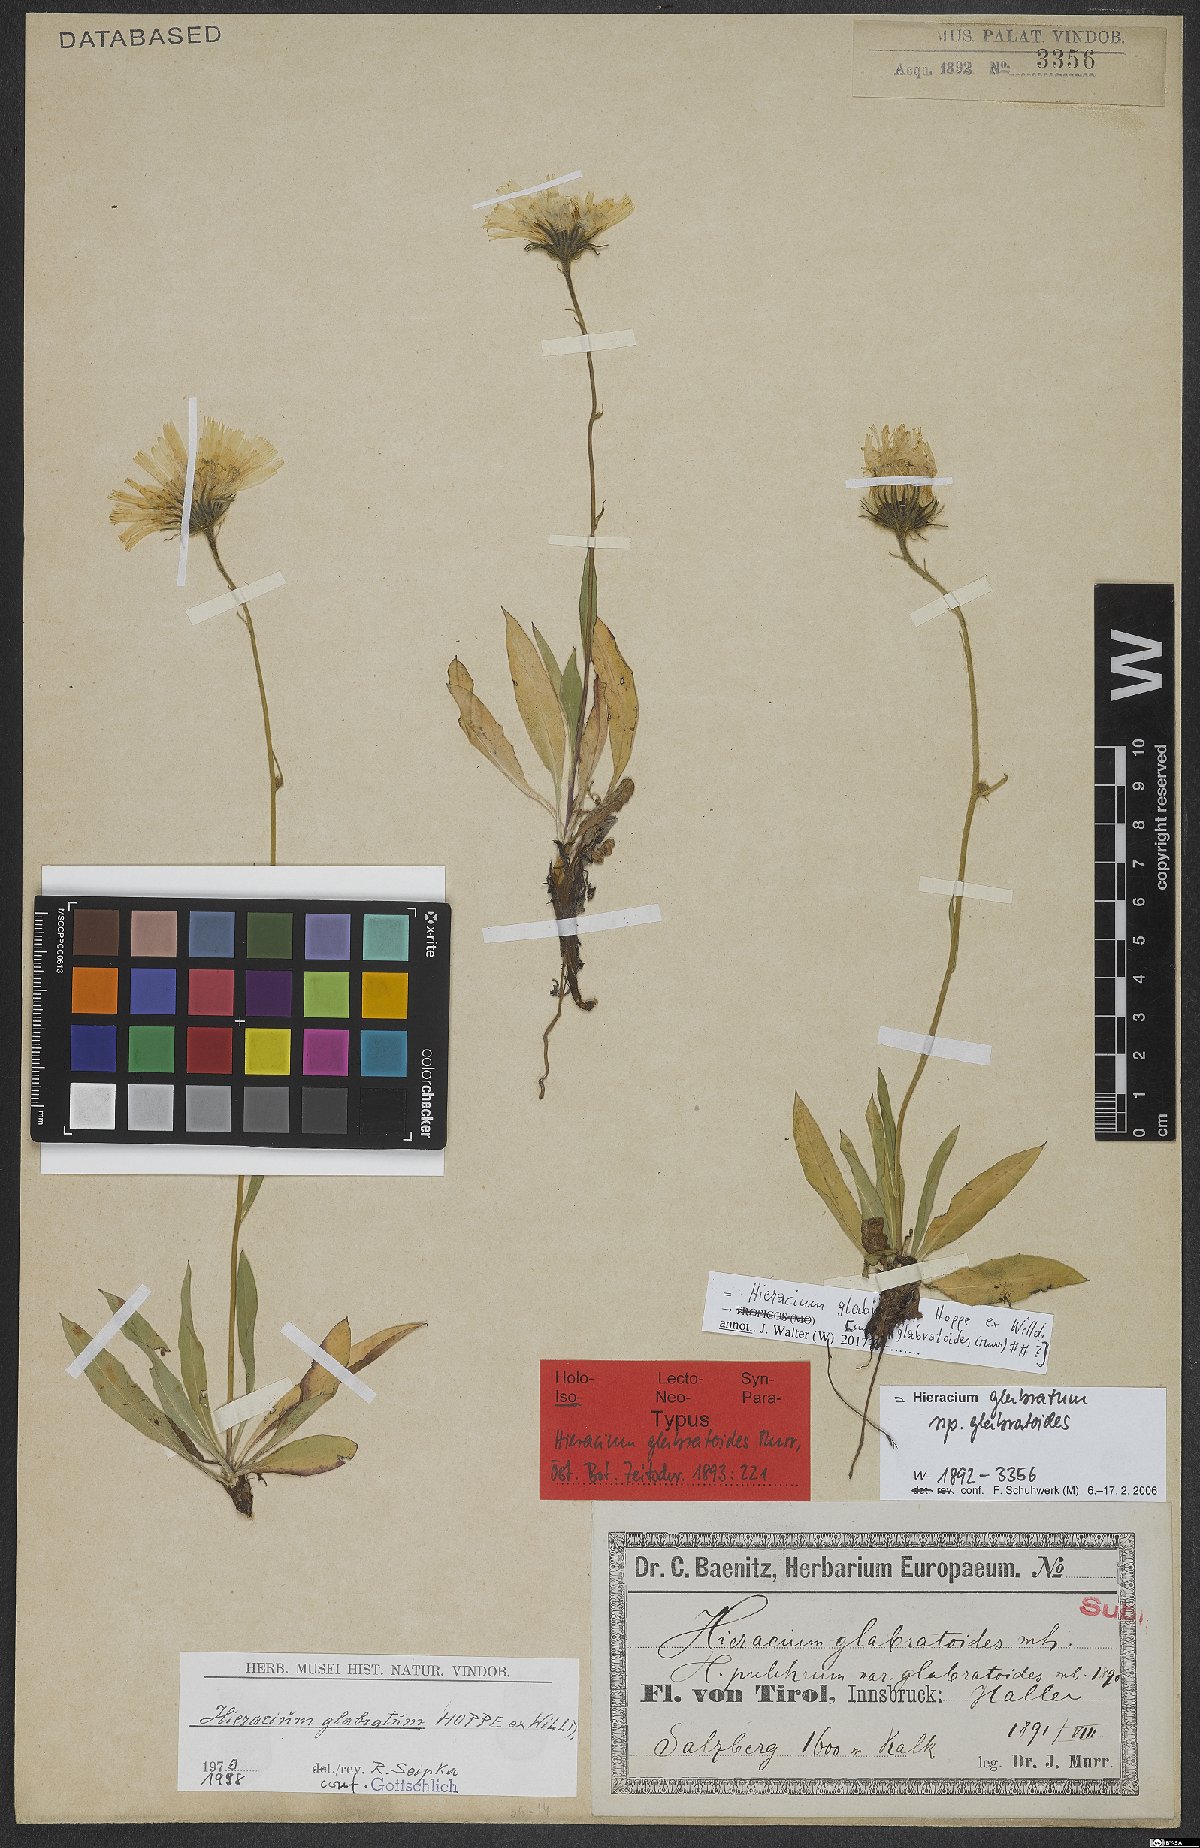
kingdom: Plantae
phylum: Tracheophyta
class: Magnoliopsida
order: Asterales
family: Asteraceae
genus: Hieracium
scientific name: Hieracium glabratum
